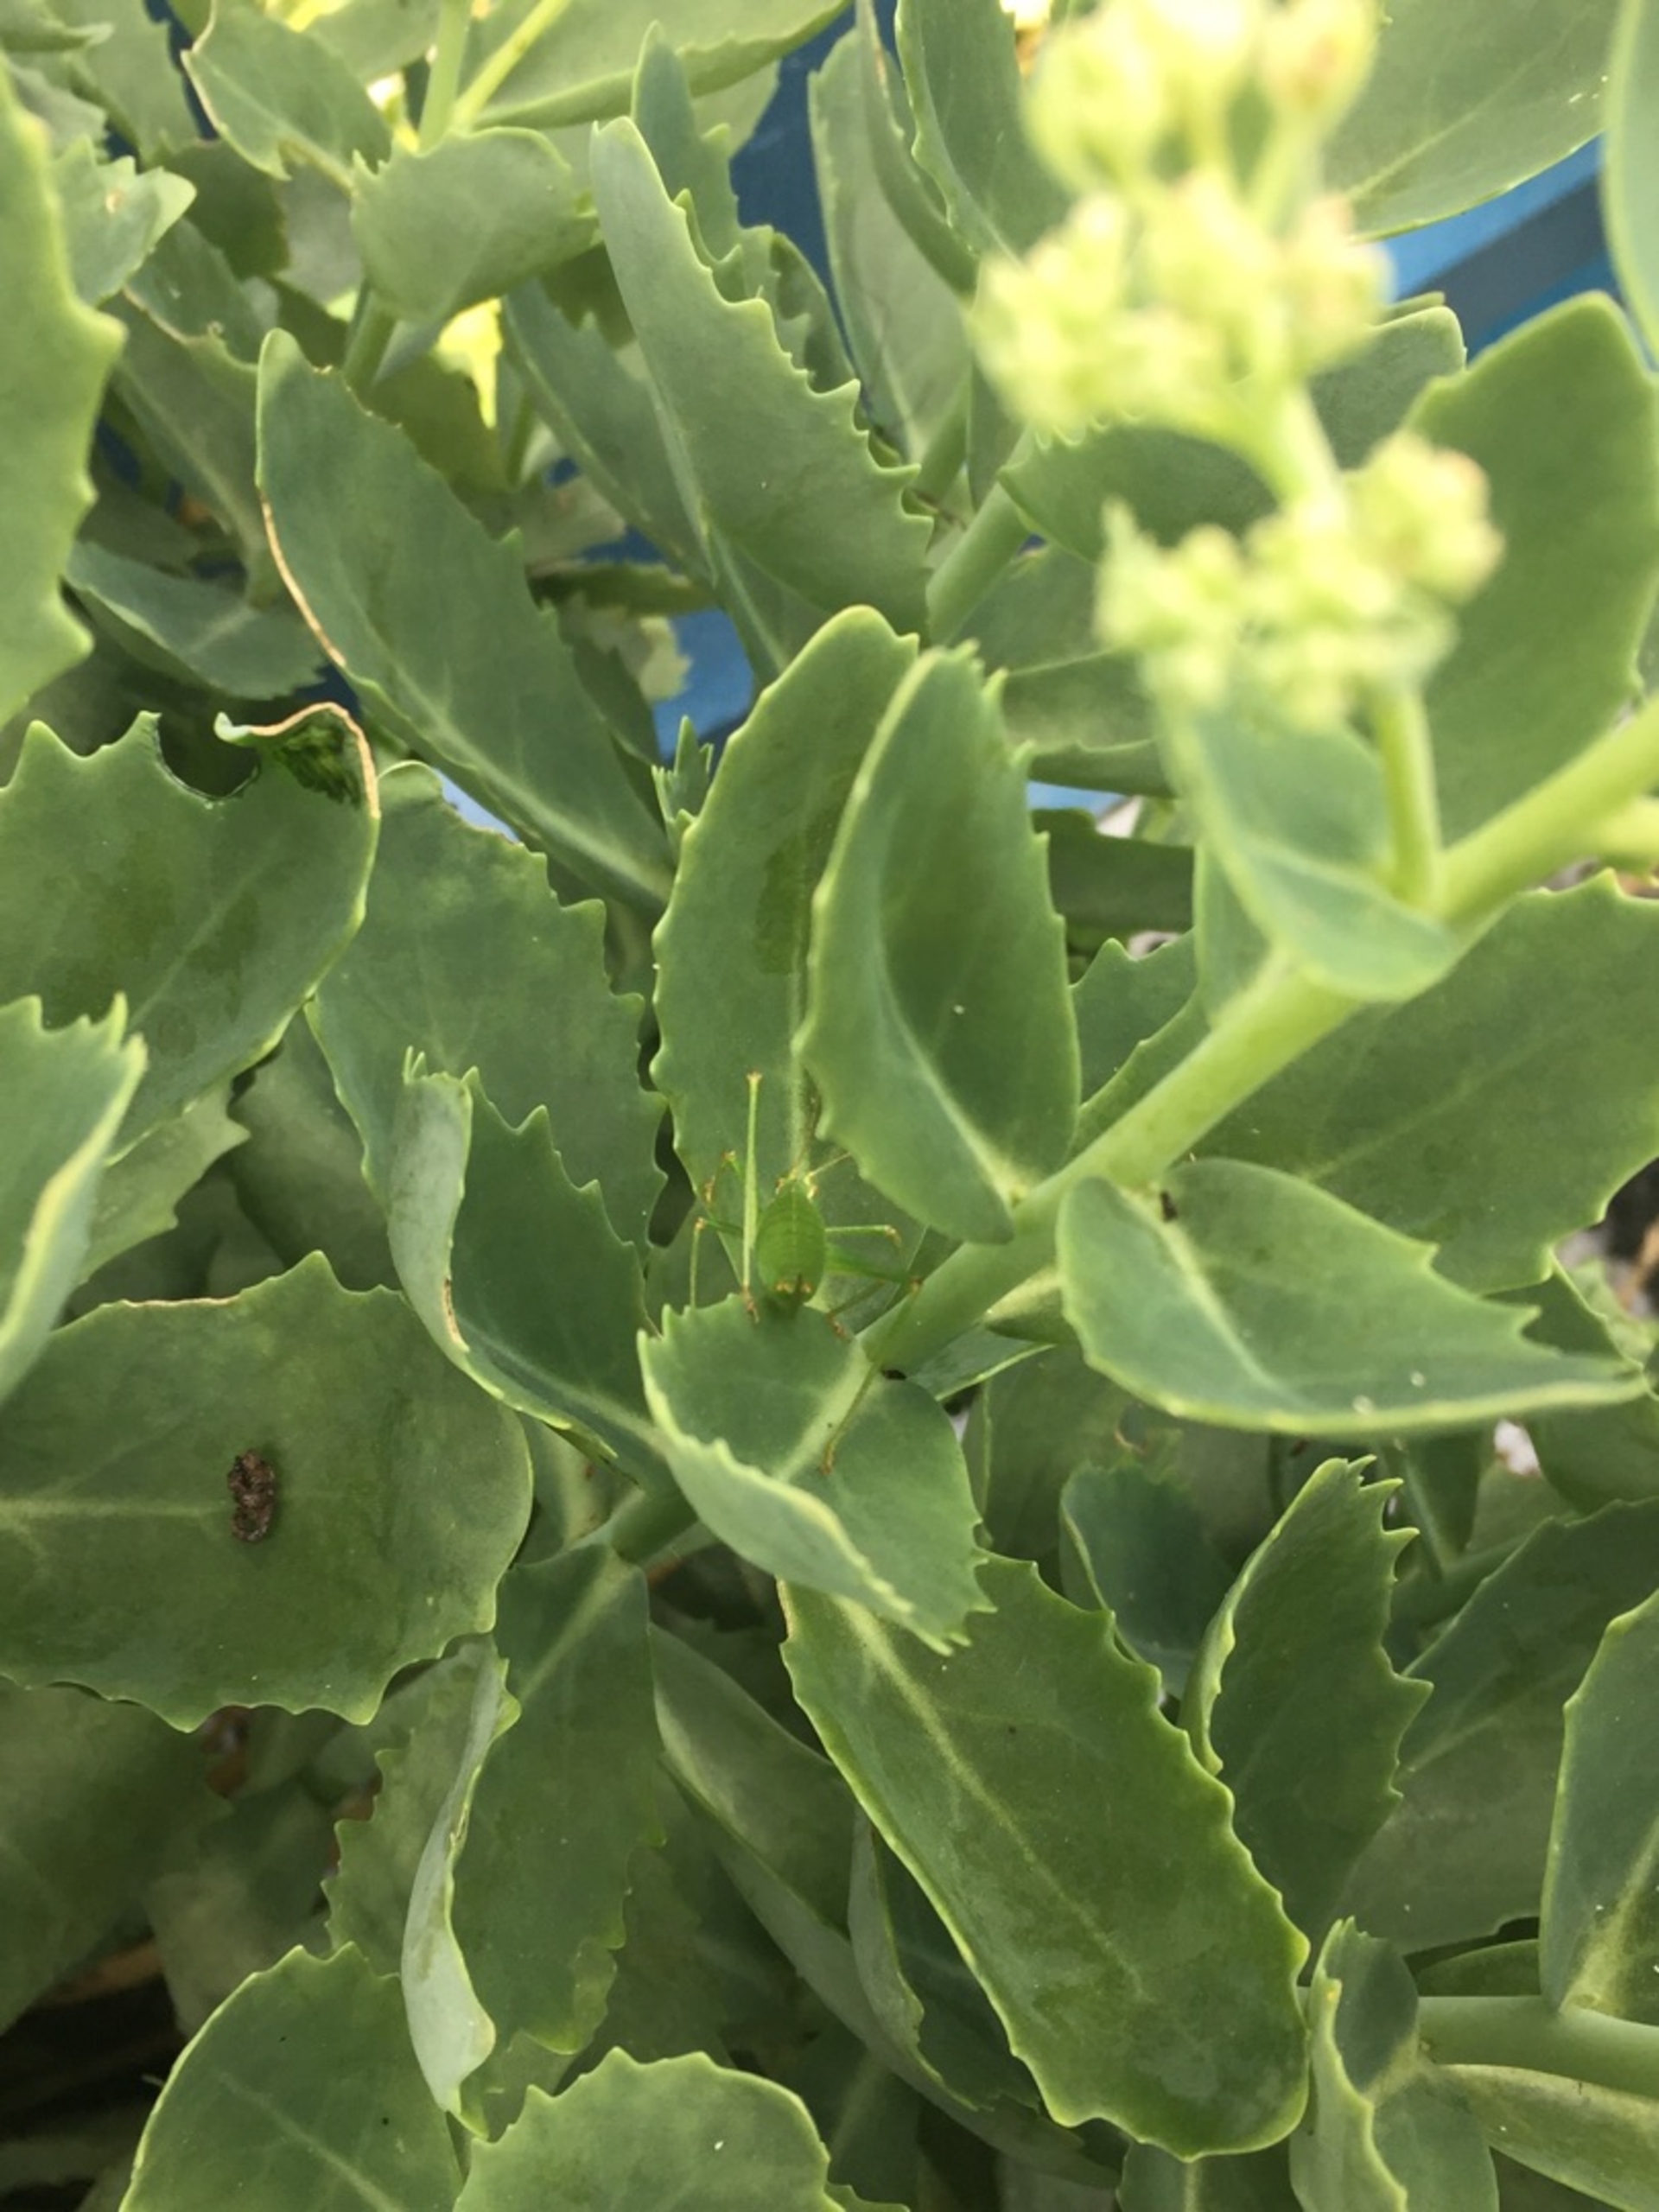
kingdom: Animalia
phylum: Arthropoda
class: Insecta
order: Orthoptera
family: Tettigoniidae
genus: Leptophyes
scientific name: Leptophyes punctatissima
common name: Krumknivgræshoppe
